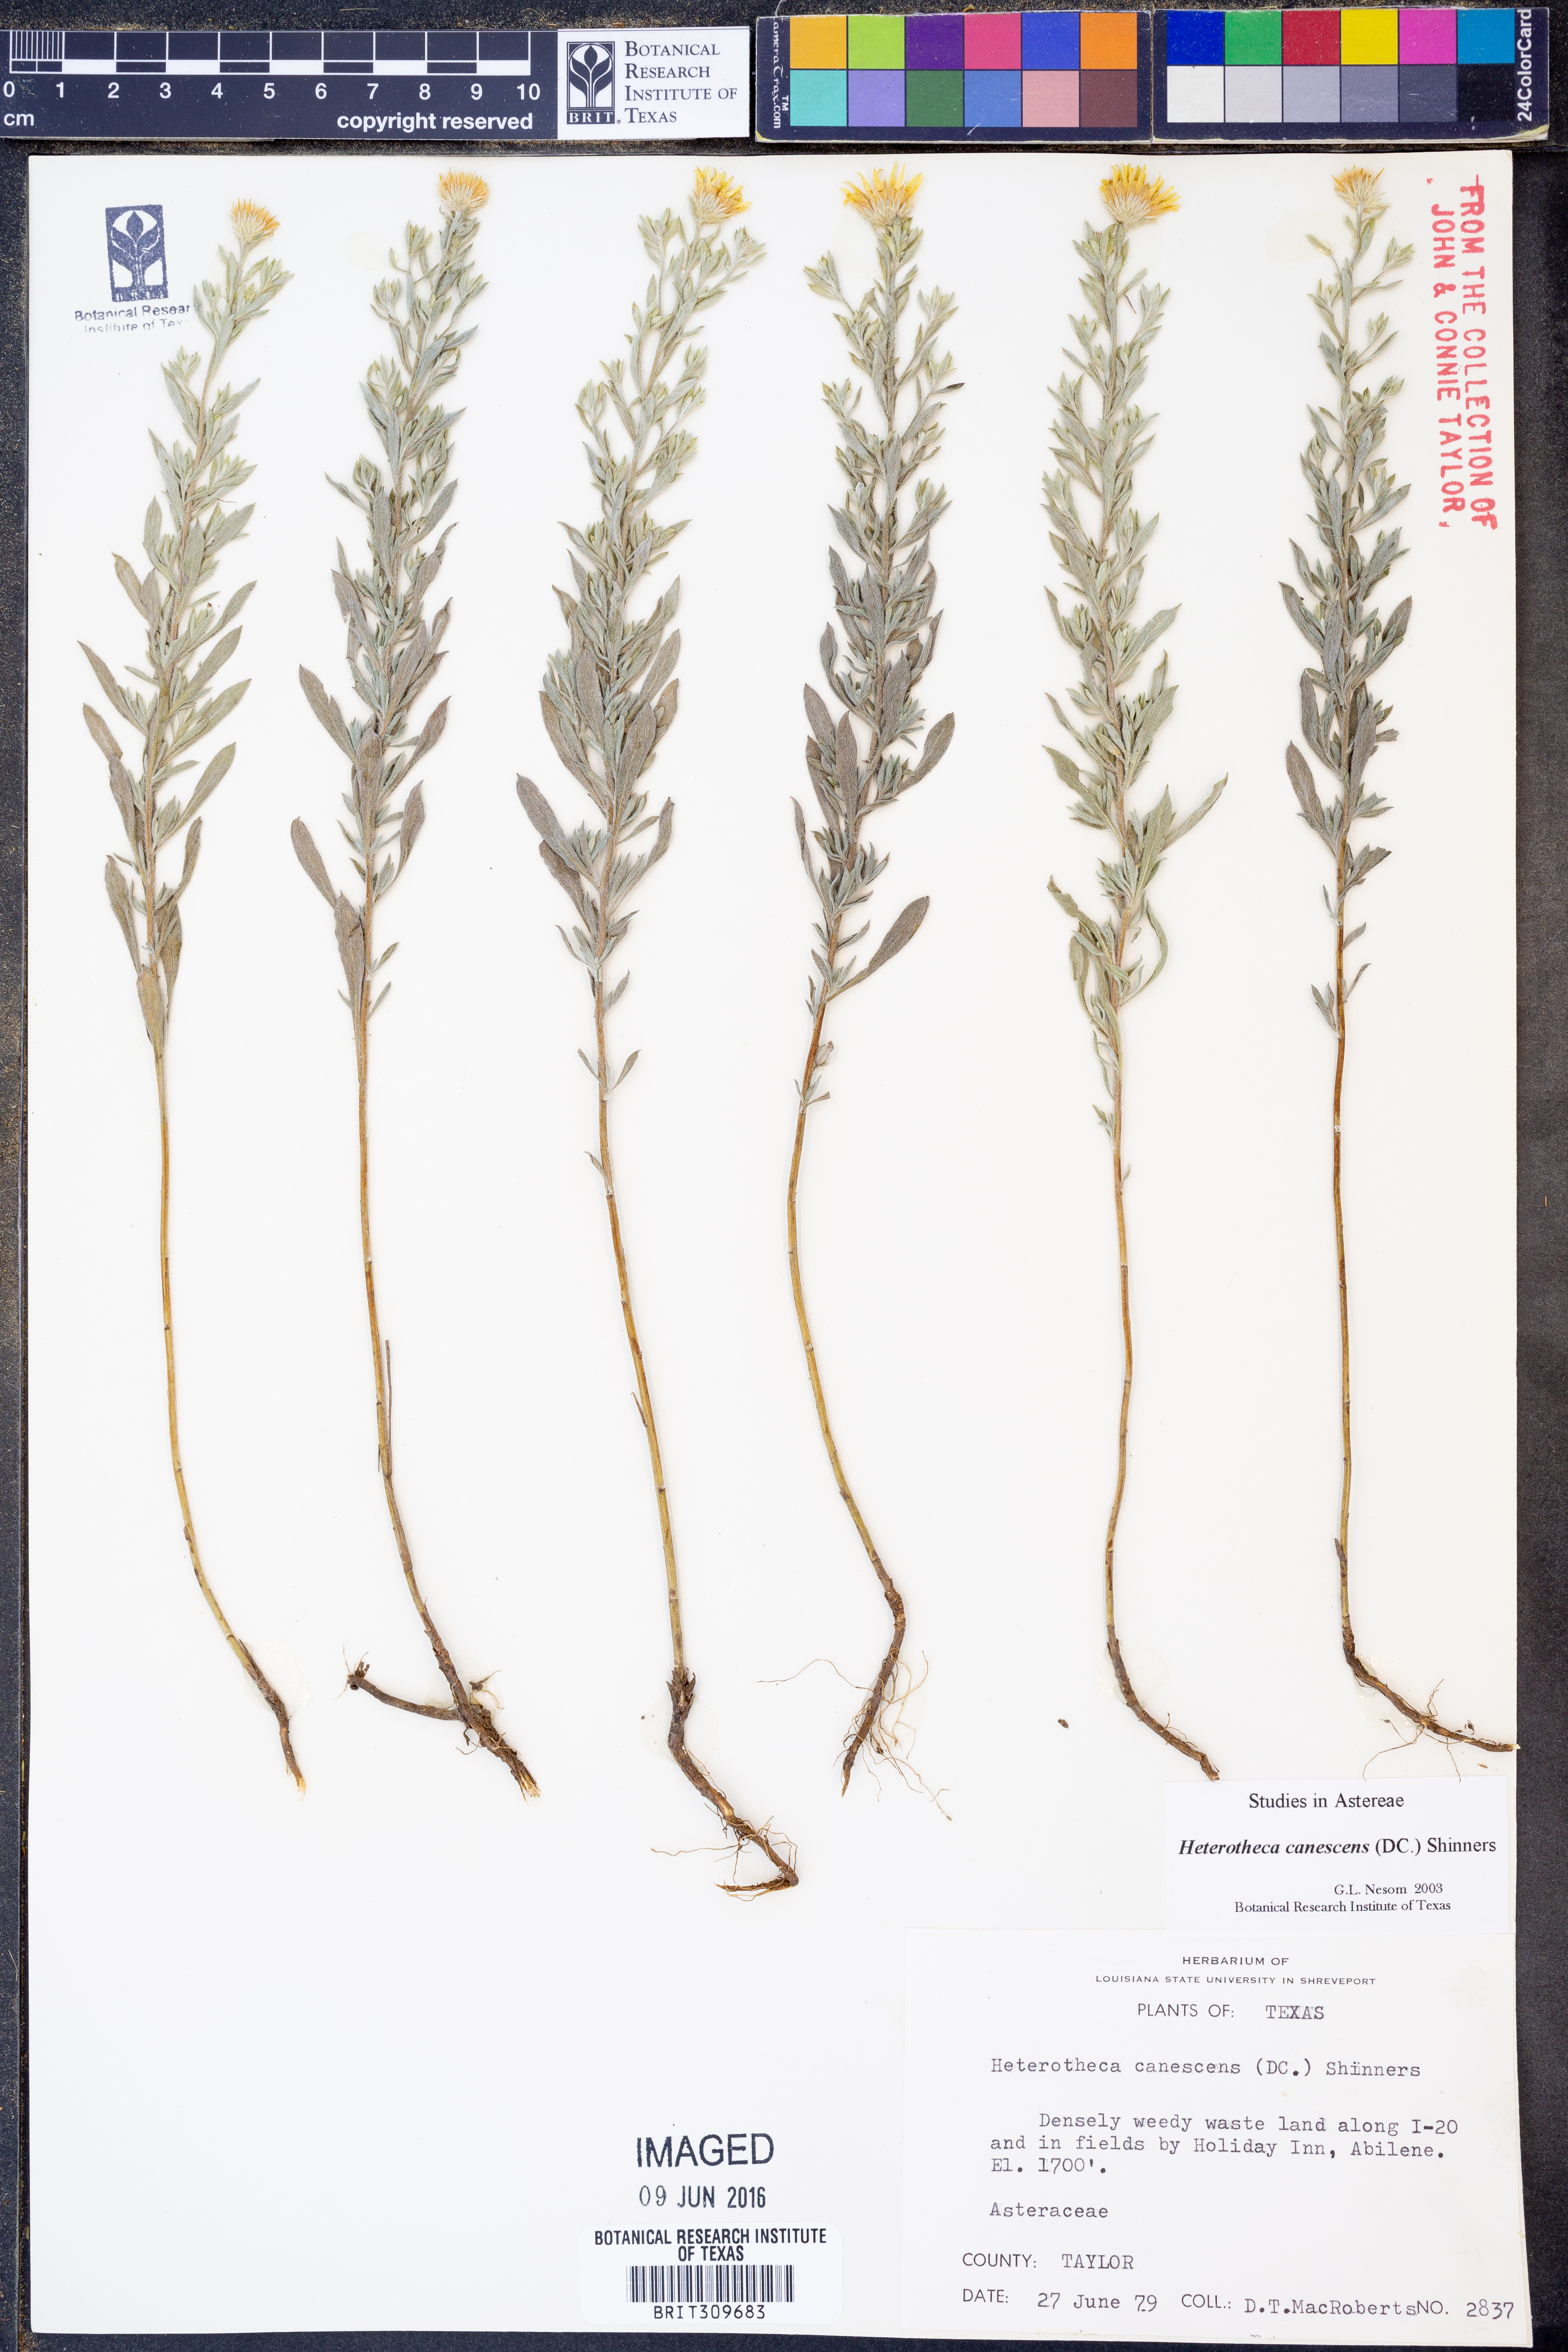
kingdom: Plantae
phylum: Tracheophyta
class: Magnoliopsida
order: Asterales
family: Asteraceae
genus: Heterotheca
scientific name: Heterotheca canescens
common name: Hoary golden-aster
